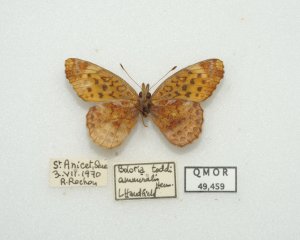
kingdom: Animalia
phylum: Arthropoda
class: Insecta
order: Lepidoptera
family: Nymphalidae
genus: Clossiana
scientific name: Clossiana toddi
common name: Meadow Fritillary
